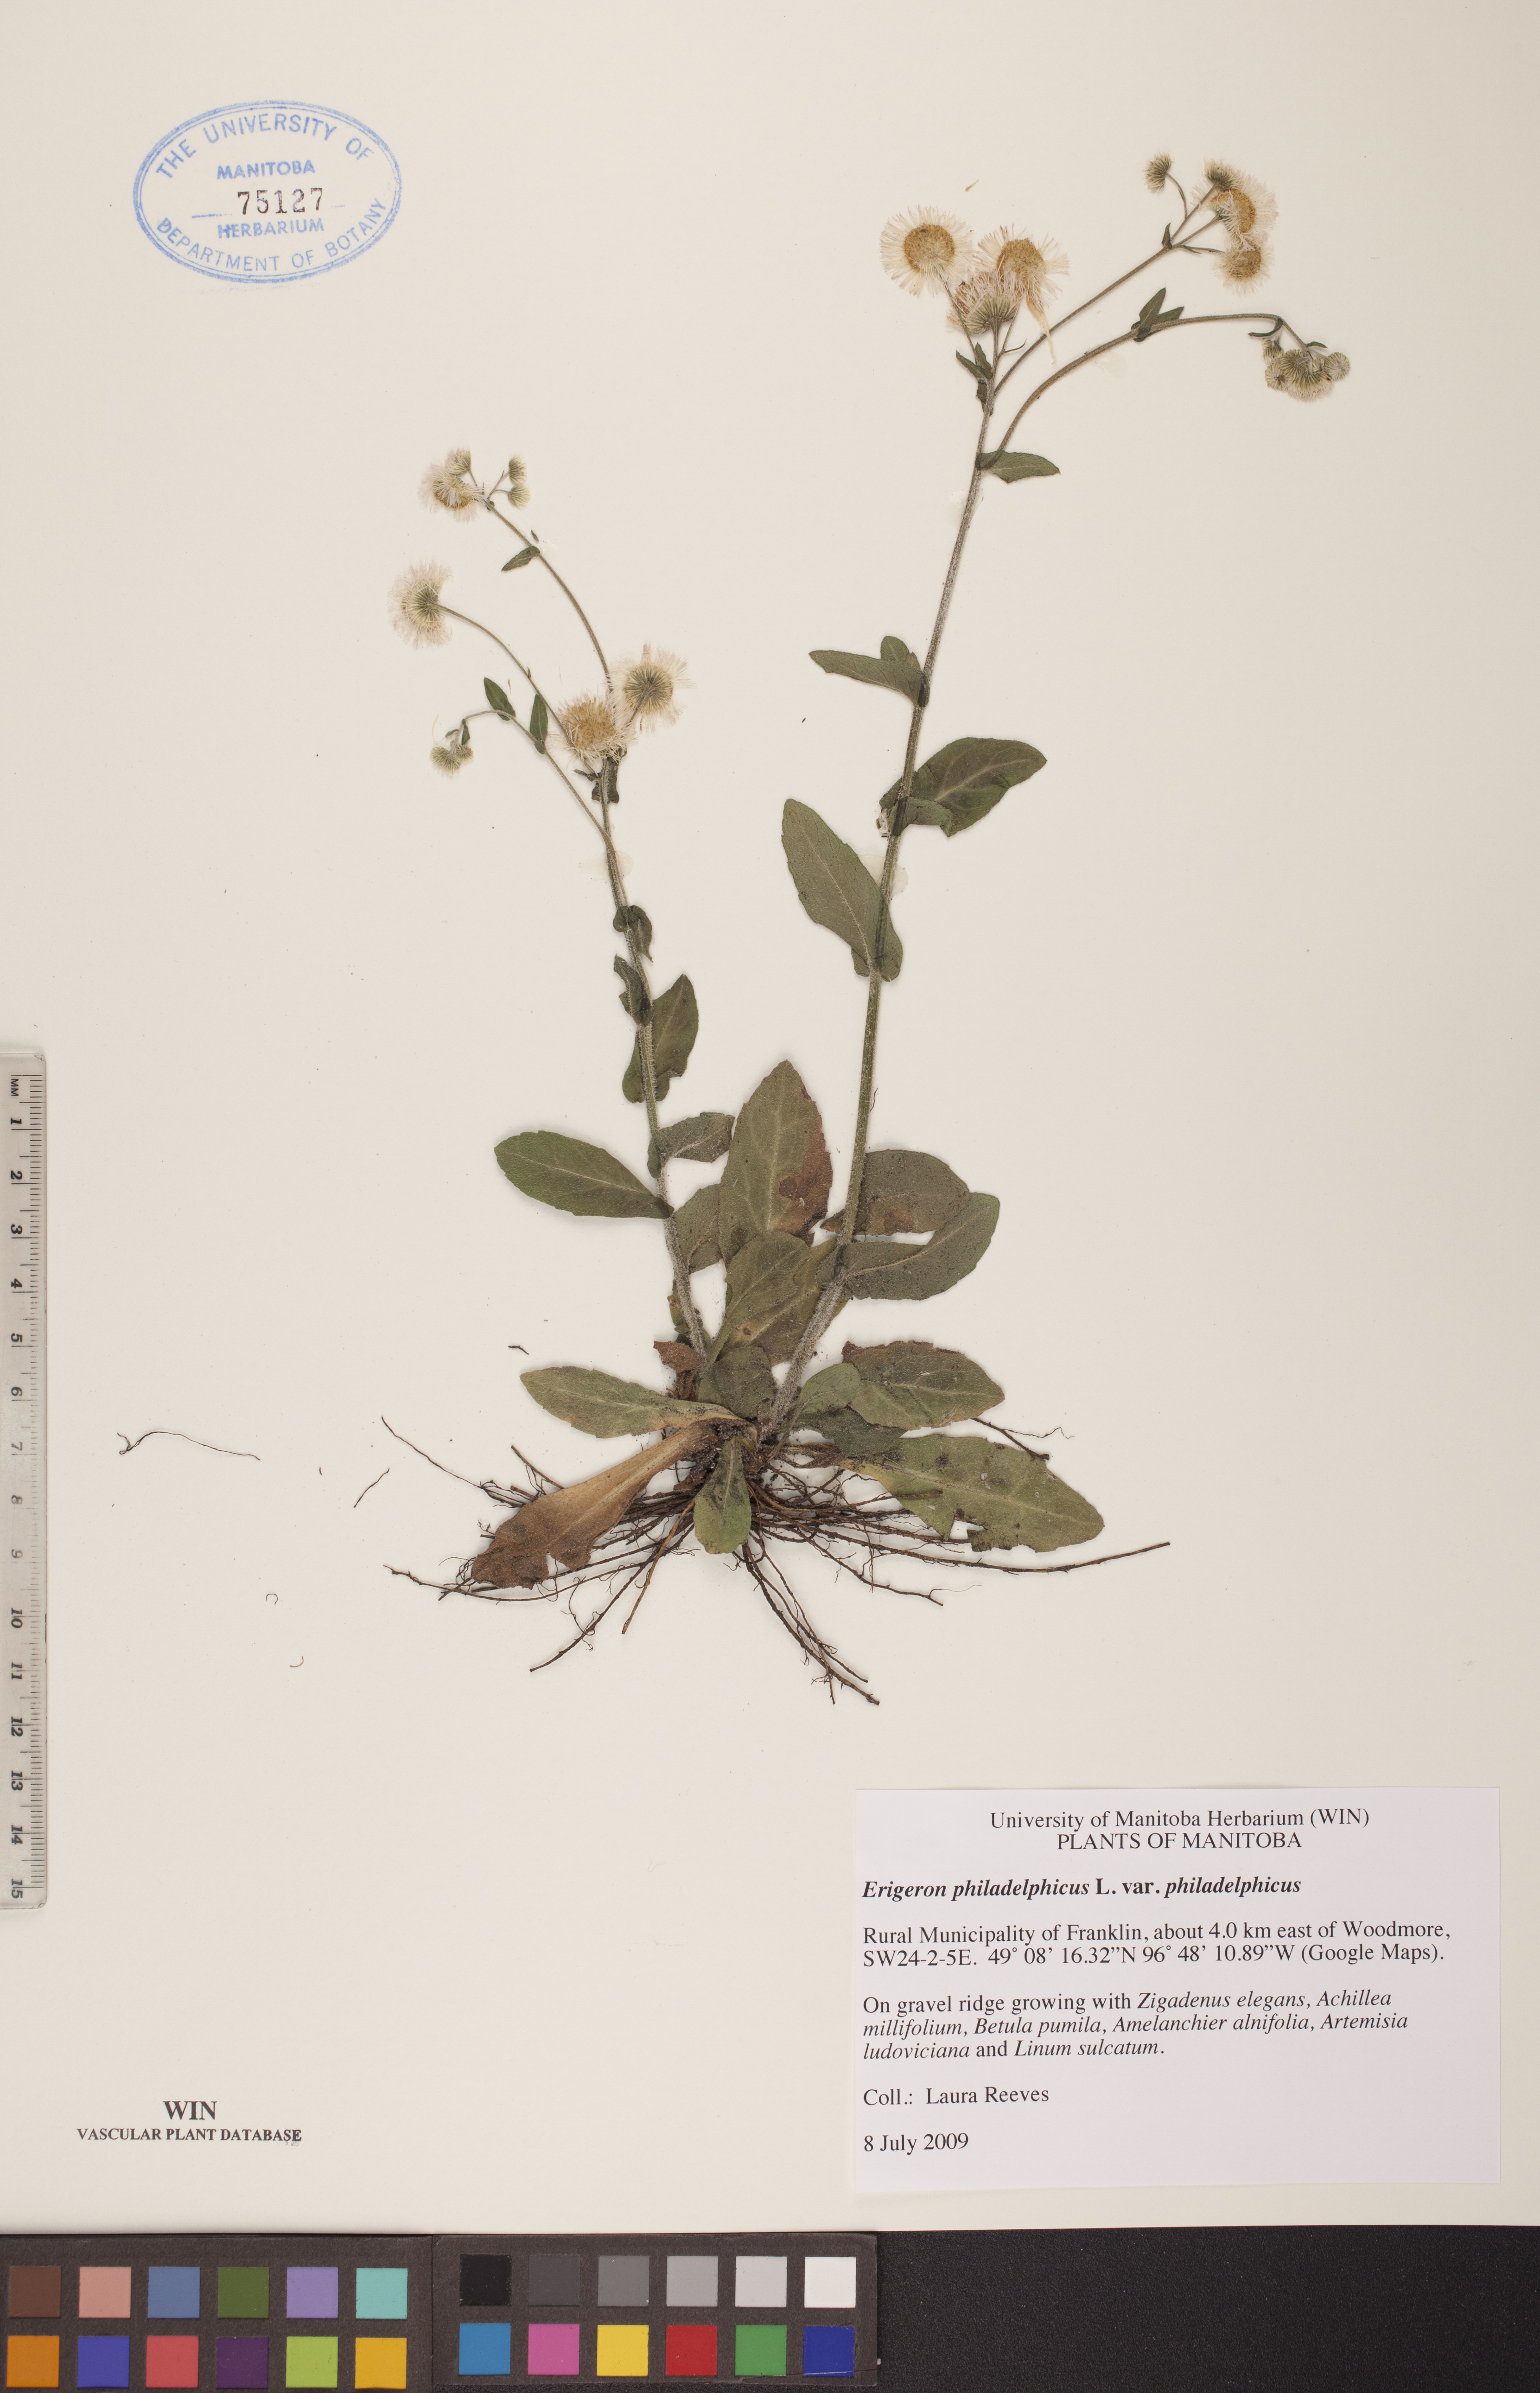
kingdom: Plantae
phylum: Tracheophyta
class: Magnoliopsida
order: Asterales
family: Asteraceae
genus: Erigeron
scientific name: Erigeron philadelphicus
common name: Robin's-plantain
